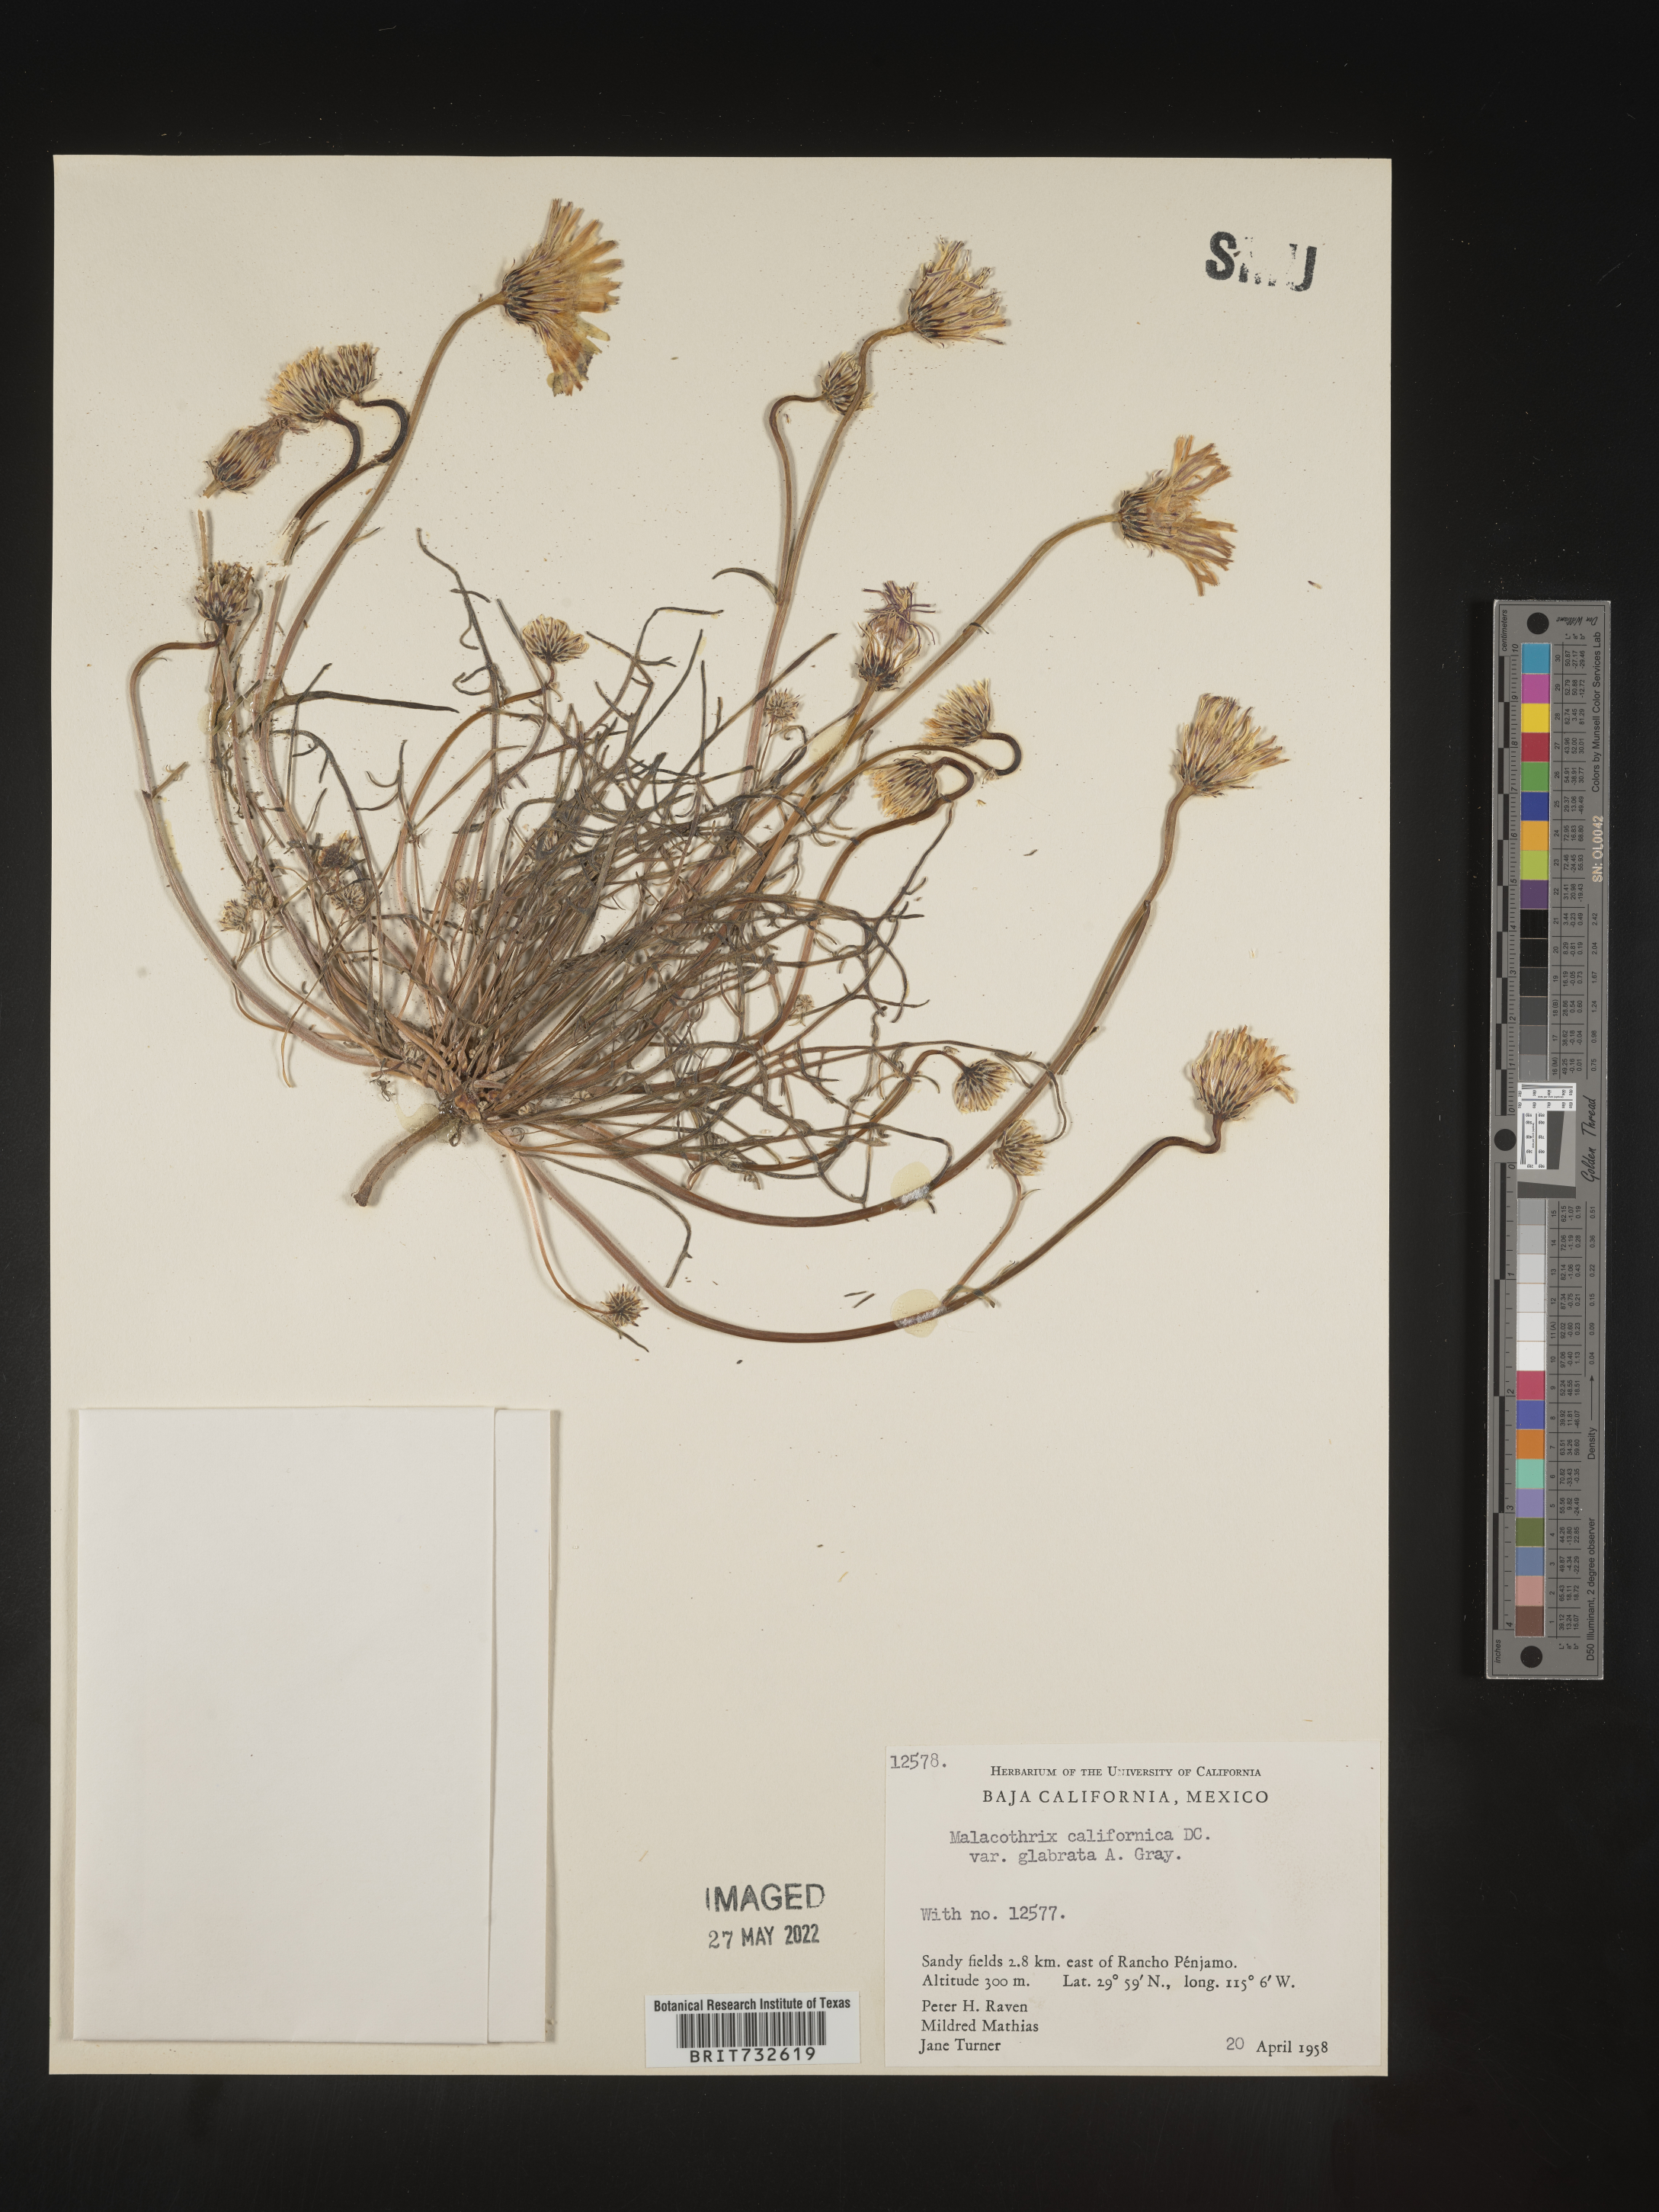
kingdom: Plantae
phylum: Tracheophyta
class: Magnoliopsida
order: Asterales
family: Asteraceae
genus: Malacothrix
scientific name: Malacothrix californica
